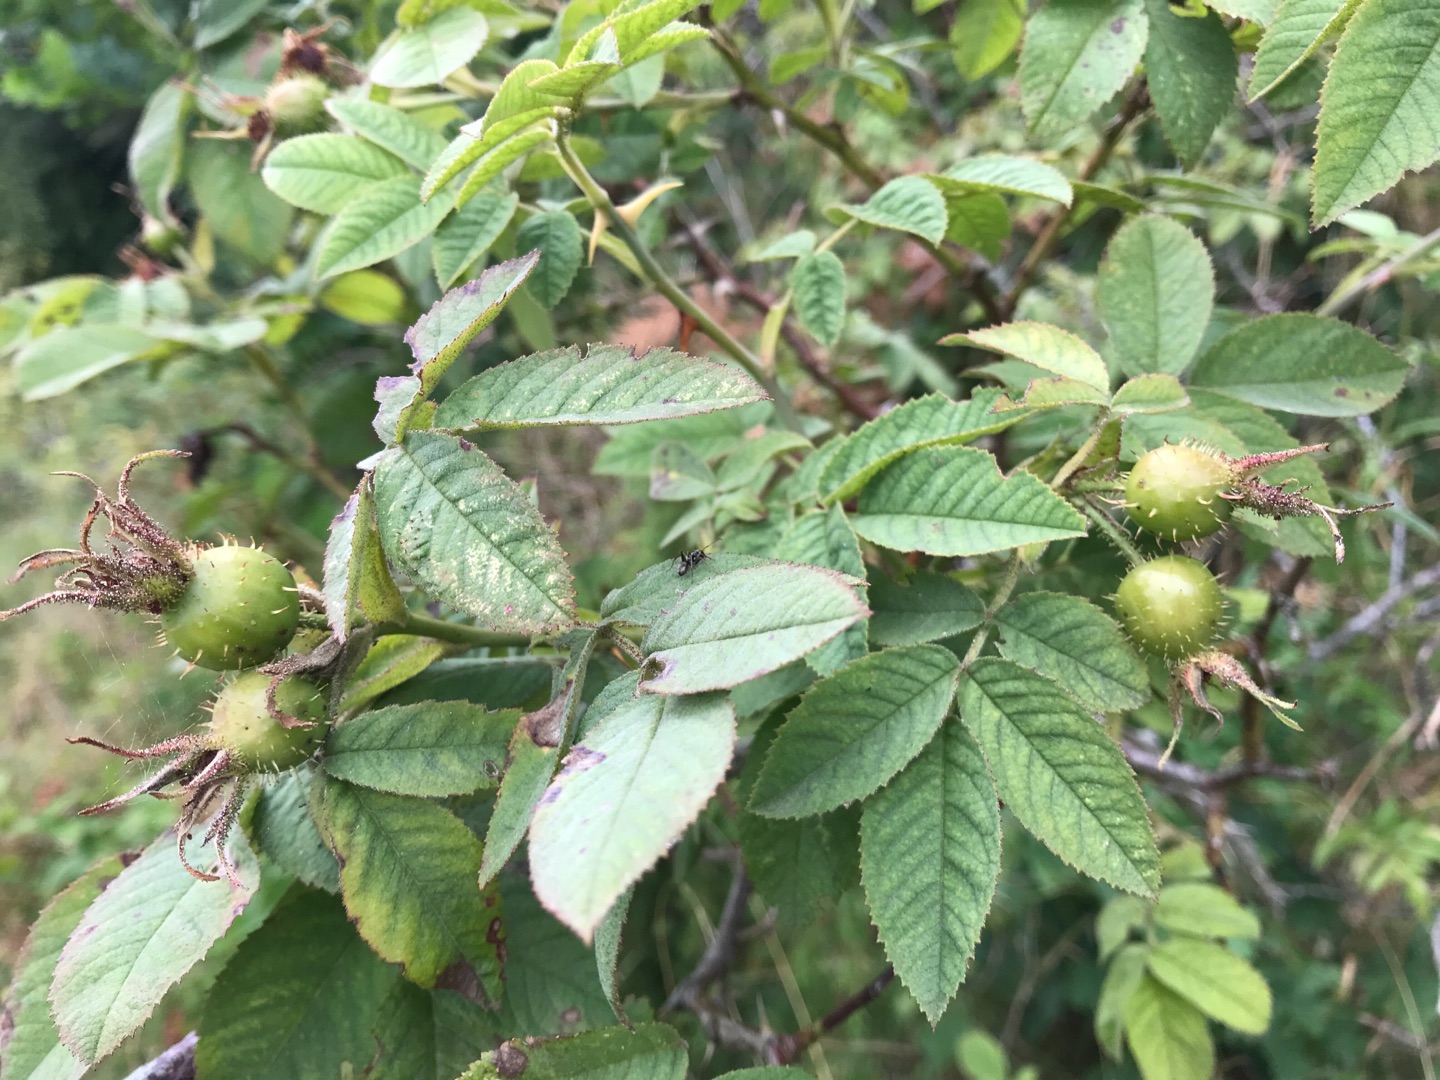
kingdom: Plantae
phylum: Tracheophyta
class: Magnoliopsida
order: Rosales
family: Rosaceae
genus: Rosa
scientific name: Rosa sherardii
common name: Kortstilket filt-rose
